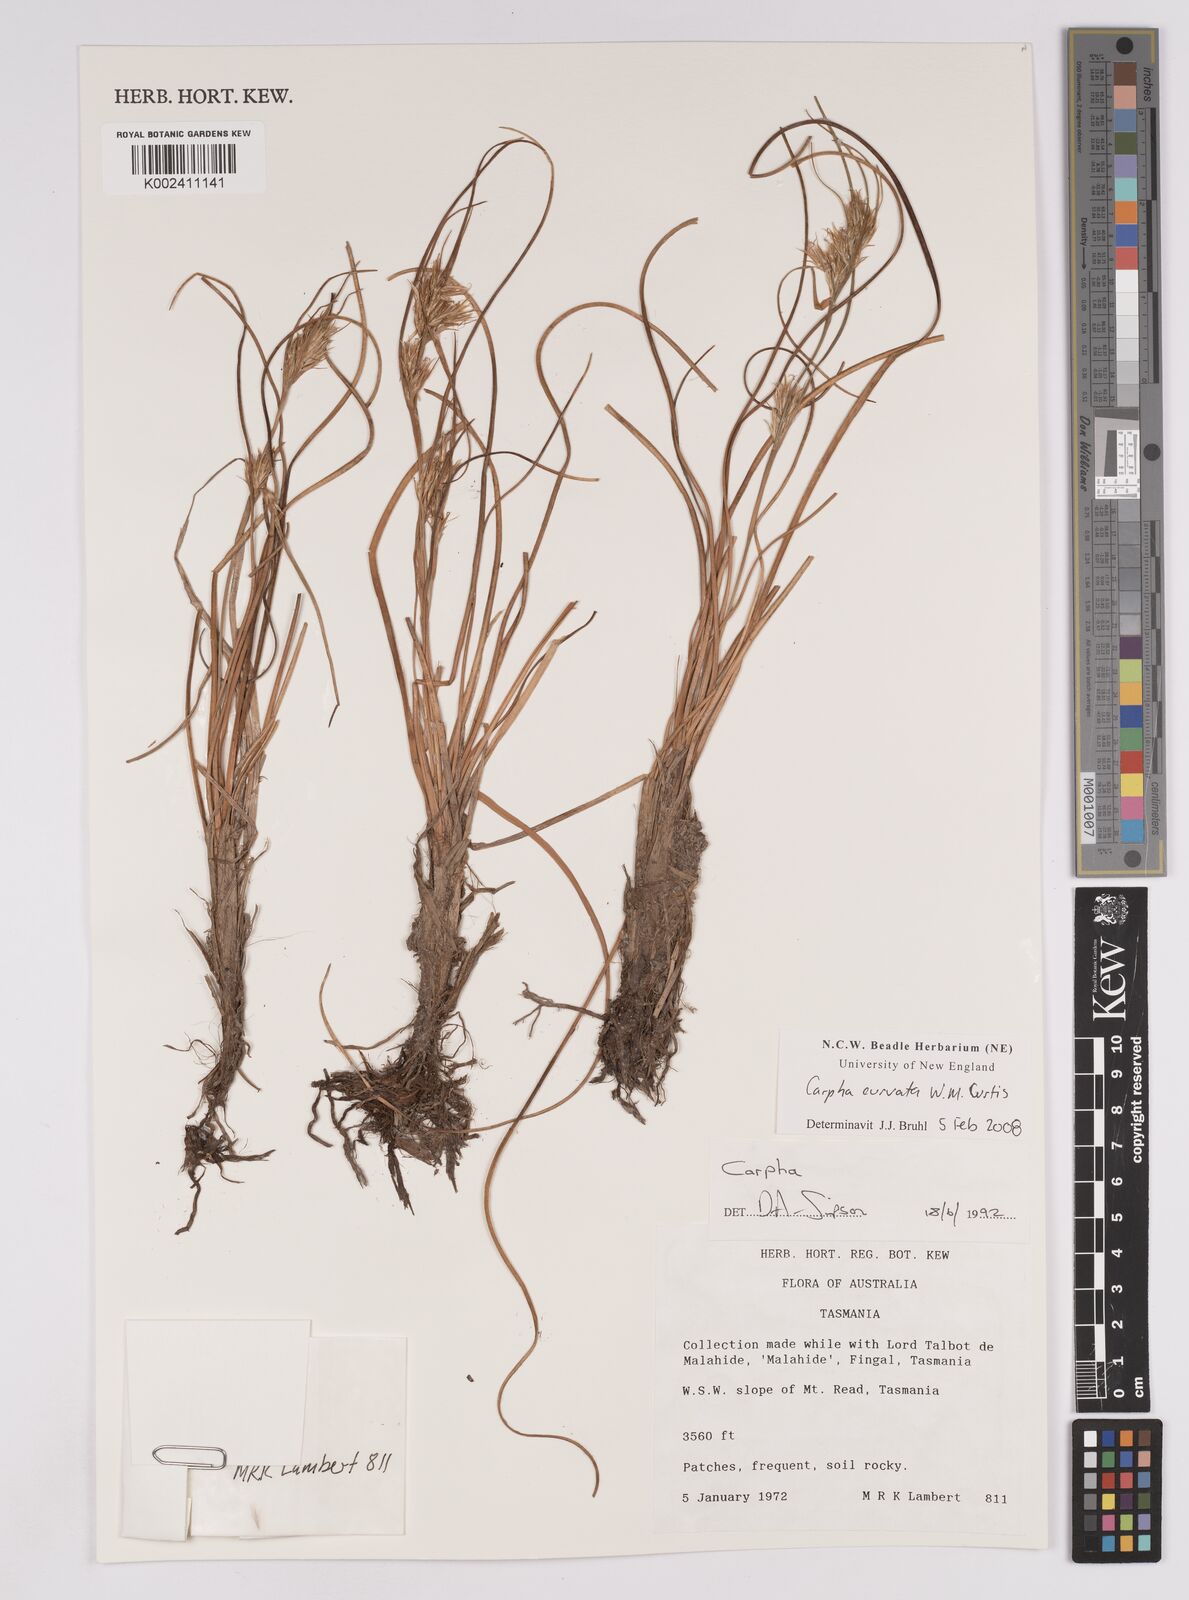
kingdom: Plantae
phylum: Tracheophyta
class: Liliopsida
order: Poales
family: Cyperaceae
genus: Carpha
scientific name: Carpha curvata
